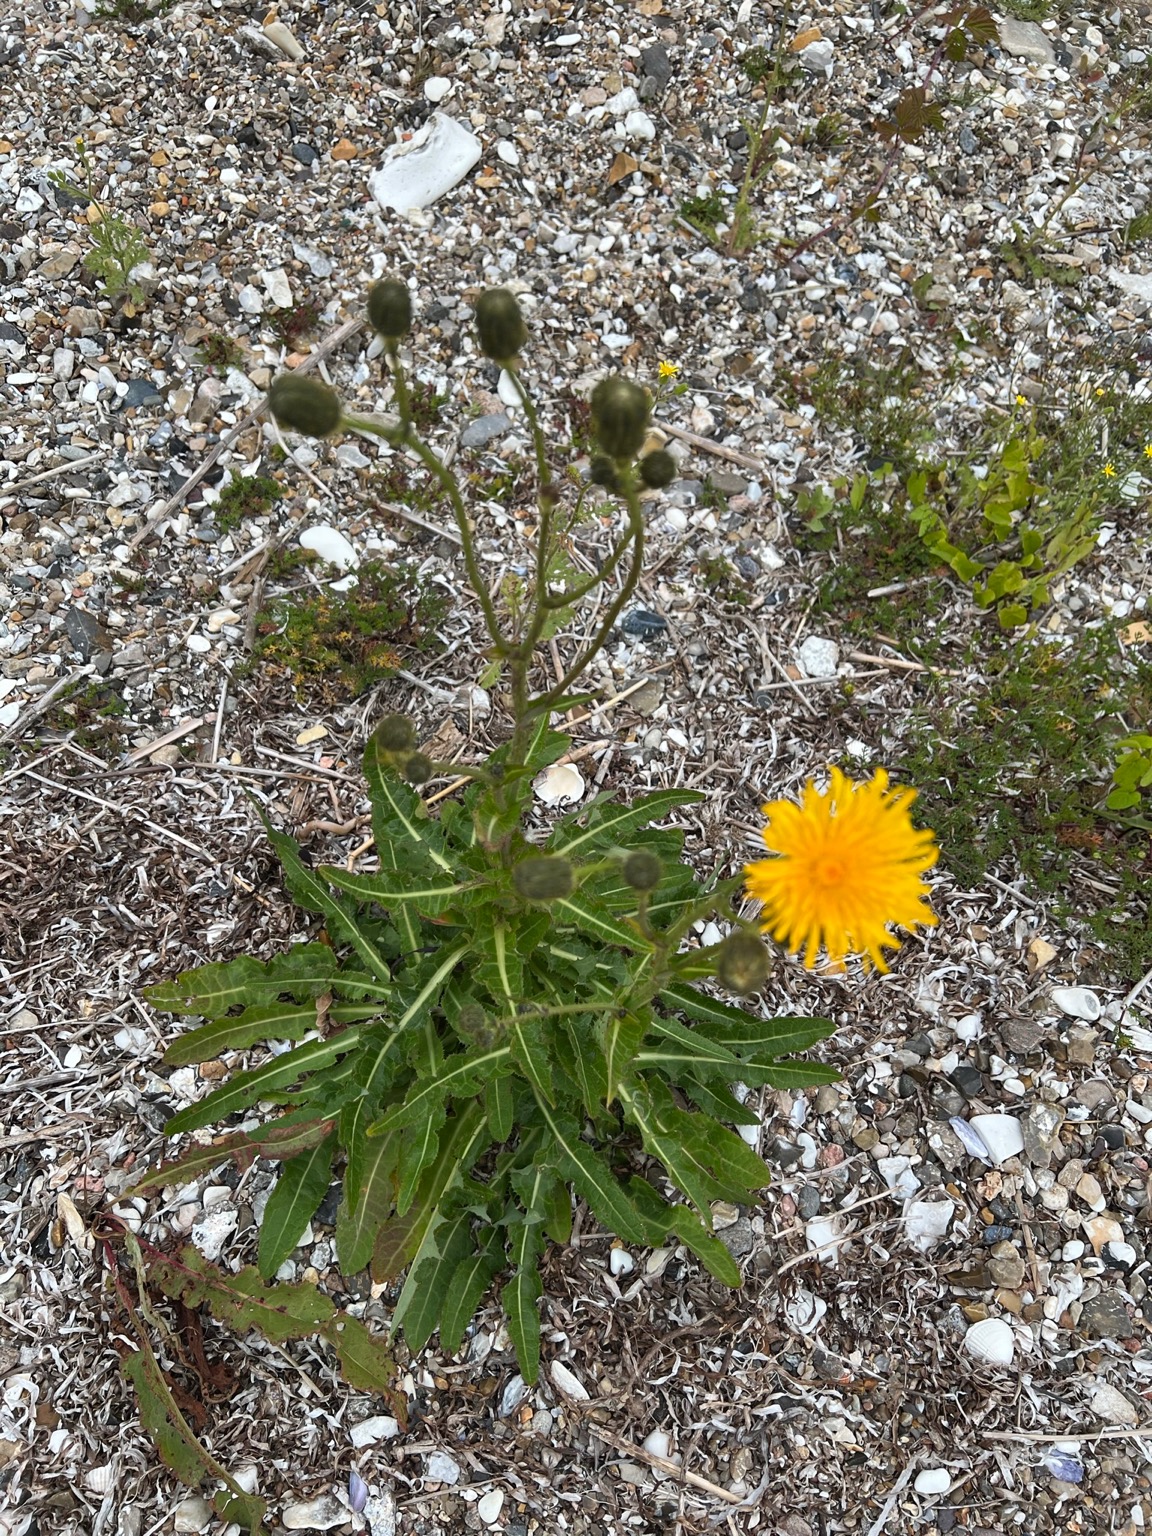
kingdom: Plantae
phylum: Tracheophyta
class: Magnoliopsida
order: Asterales
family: Asteraceae
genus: Sonchus
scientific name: Sonchus arvensis
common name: Ager-svinemælk
